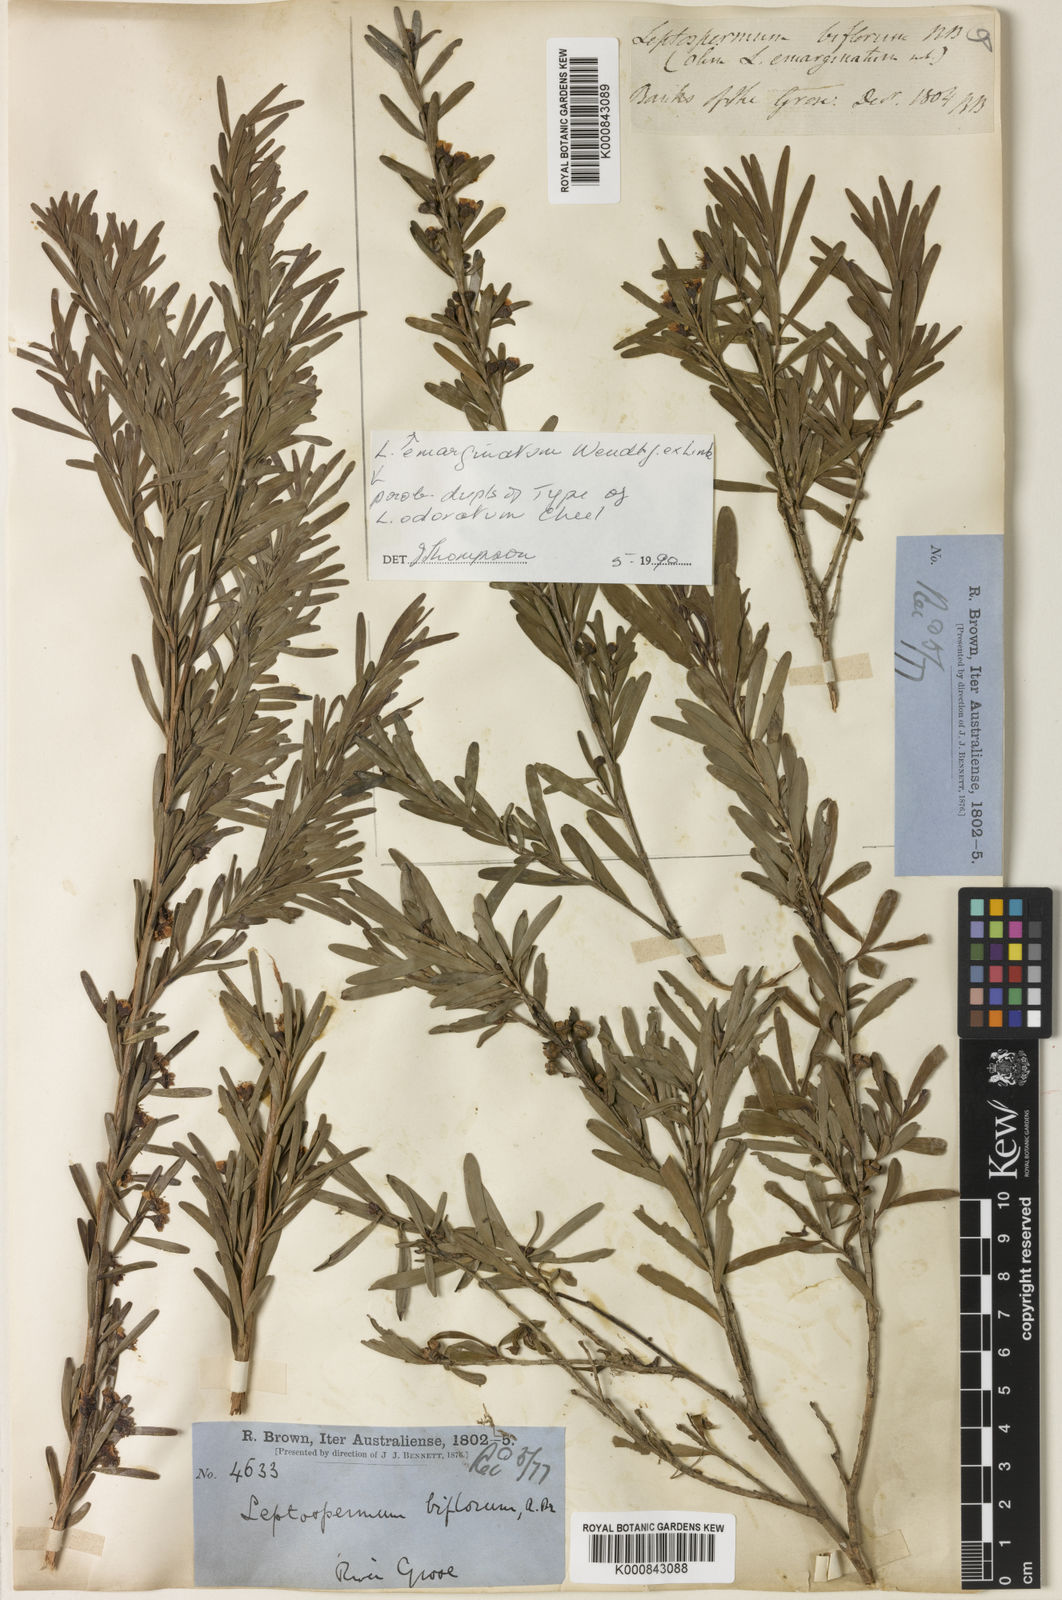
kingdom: Plantae
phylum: Tracheophyta
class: Magnoliopsida
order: Myrtales
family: Myrtaceae
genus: Leptospermum
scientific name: Leptospermum emarginatum
